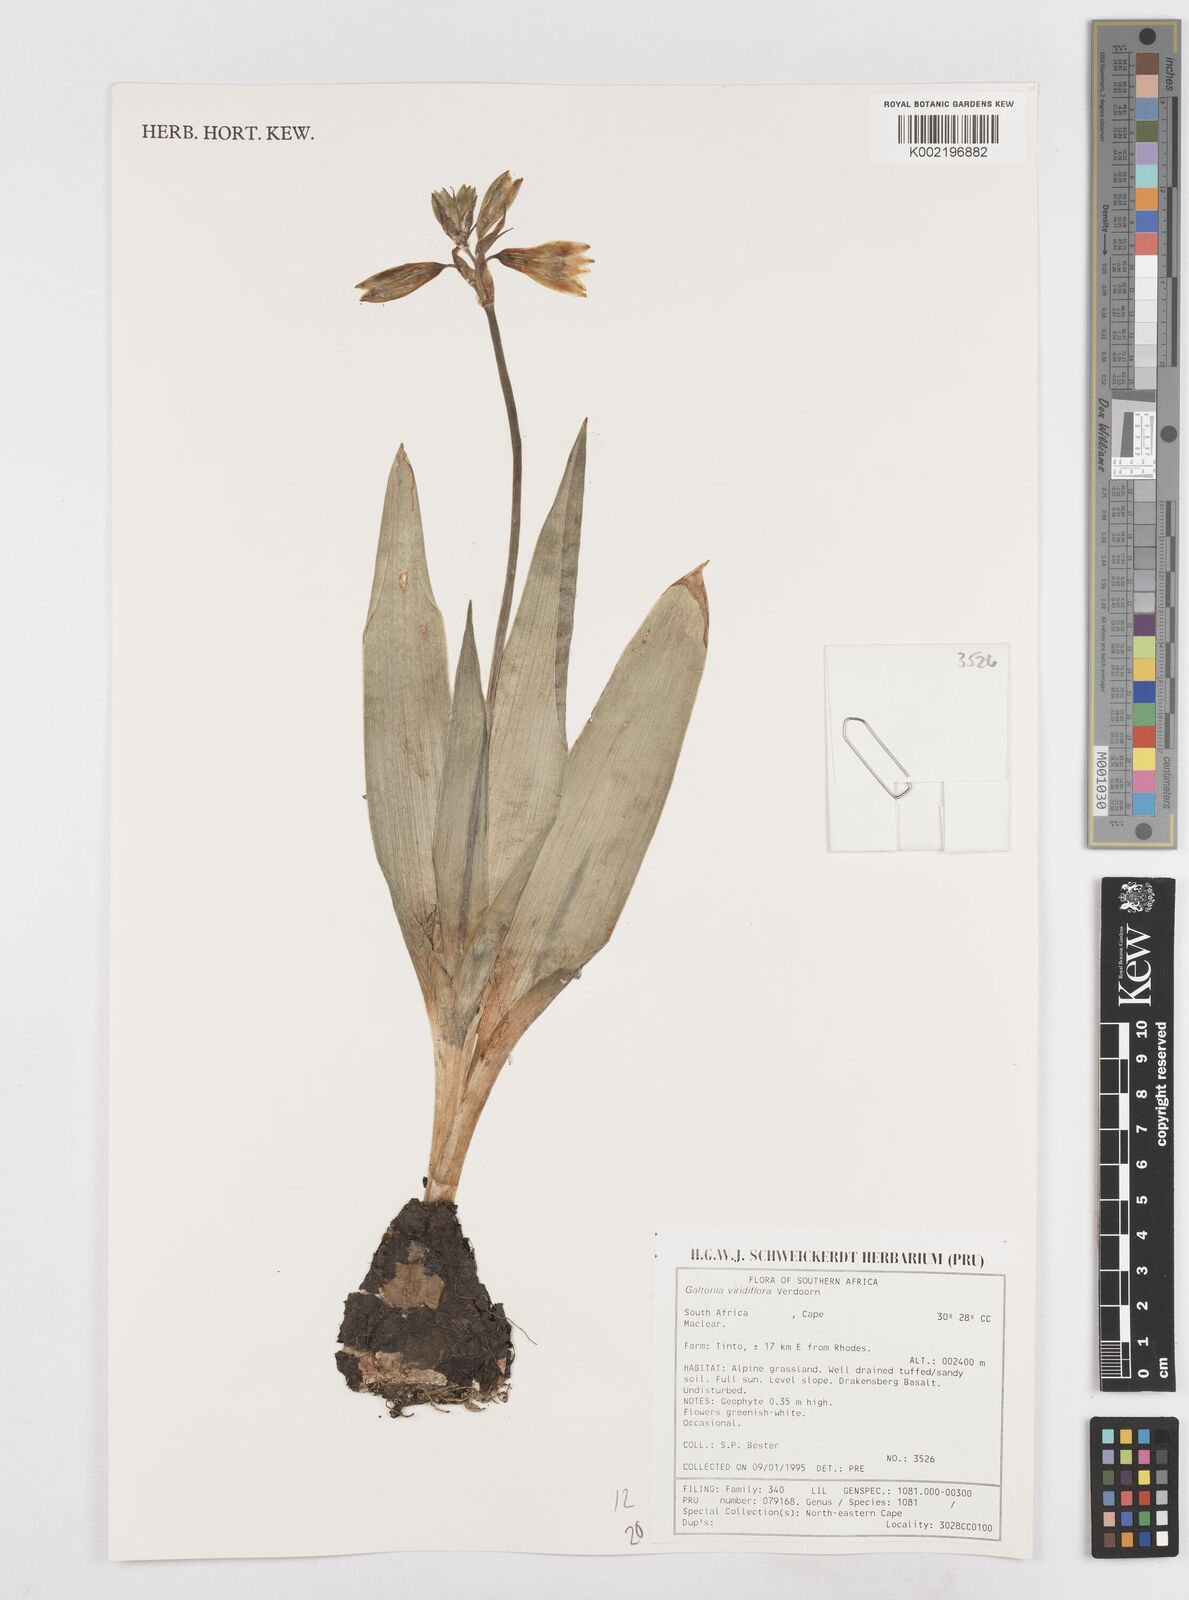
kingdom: Plantae
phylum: Tracheophyta
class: Liliopsida
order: Asparagales
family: Asparagaceae
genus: Ornithogalum
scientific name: Ornithogalum viridiflorum
